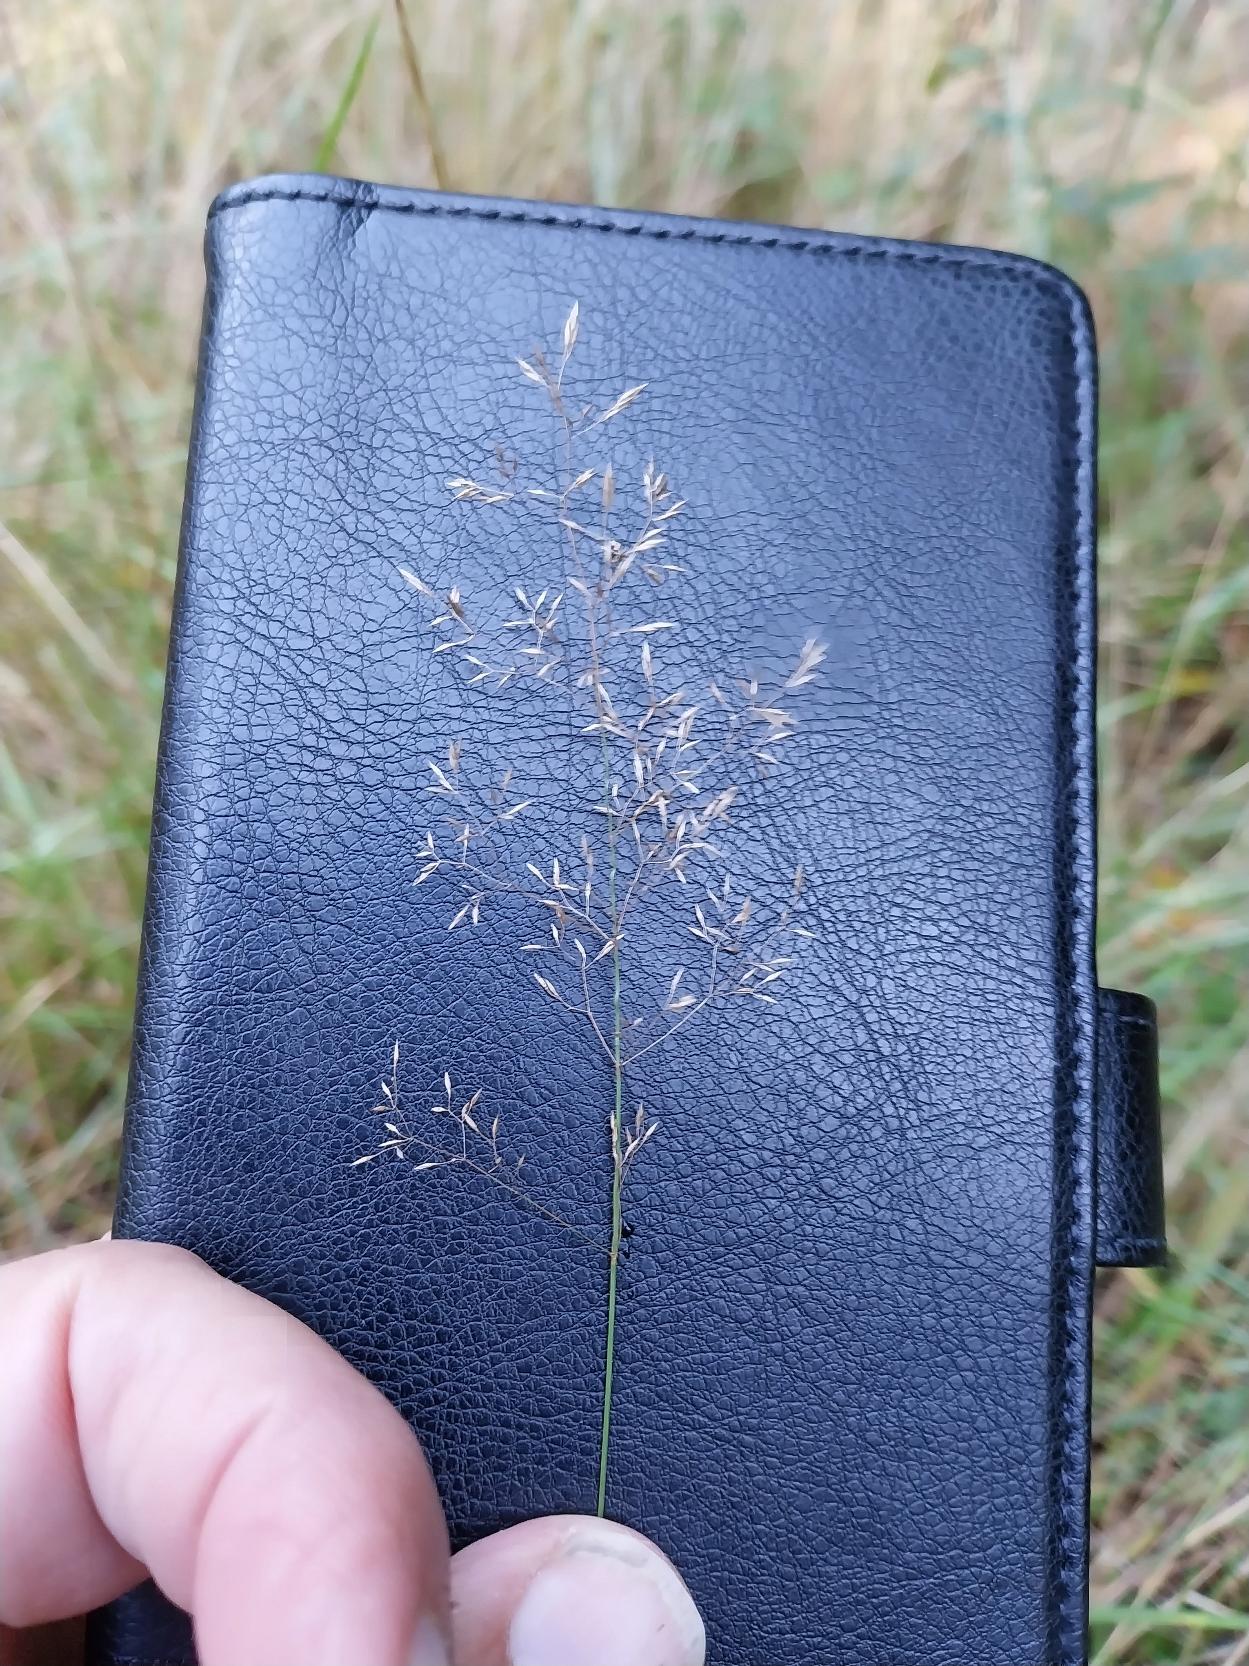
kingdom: Plantae
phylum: Tracheophyta
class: Liliopsida
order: Poales
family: Poaceae
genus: Agrostis
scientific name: Agrostis capillaris
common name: Almindelig hvene
